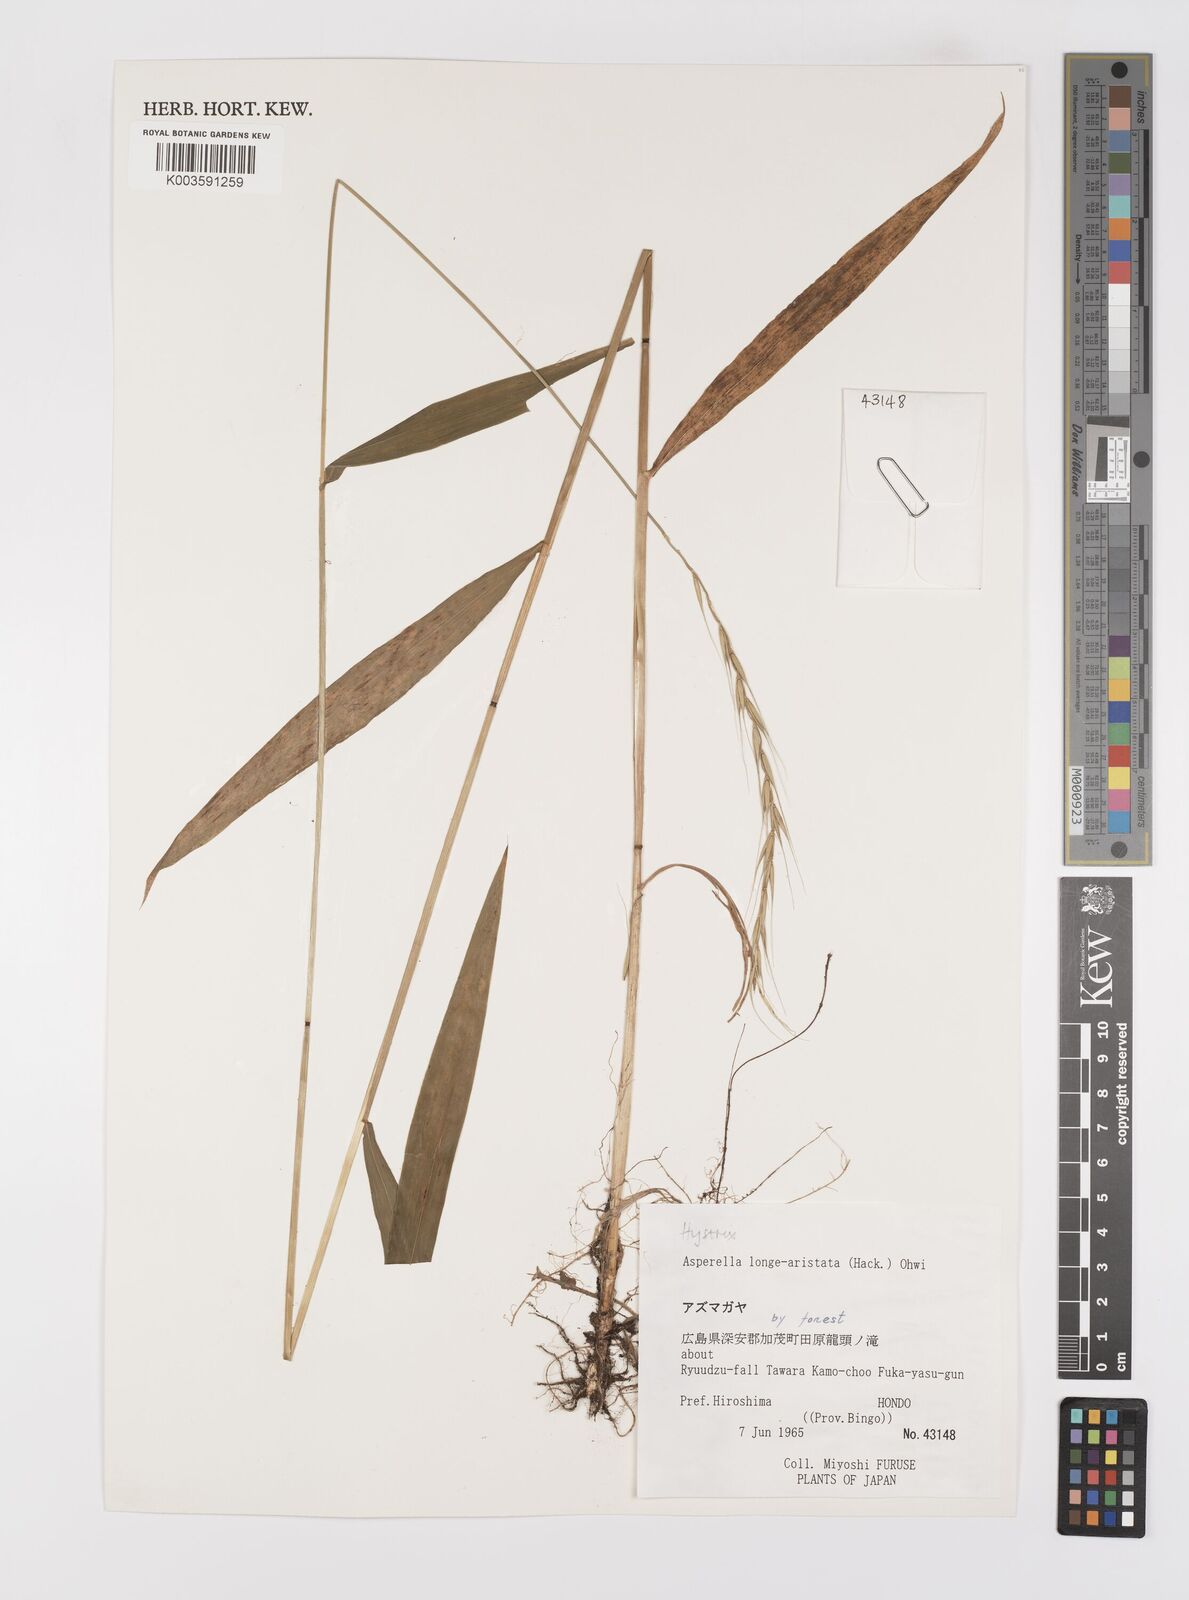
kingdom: Plantae
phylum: Tracheophyta
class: Liliopsida
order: Poales
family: Poaceae
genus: Leymus
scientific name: Leymus duthiei
